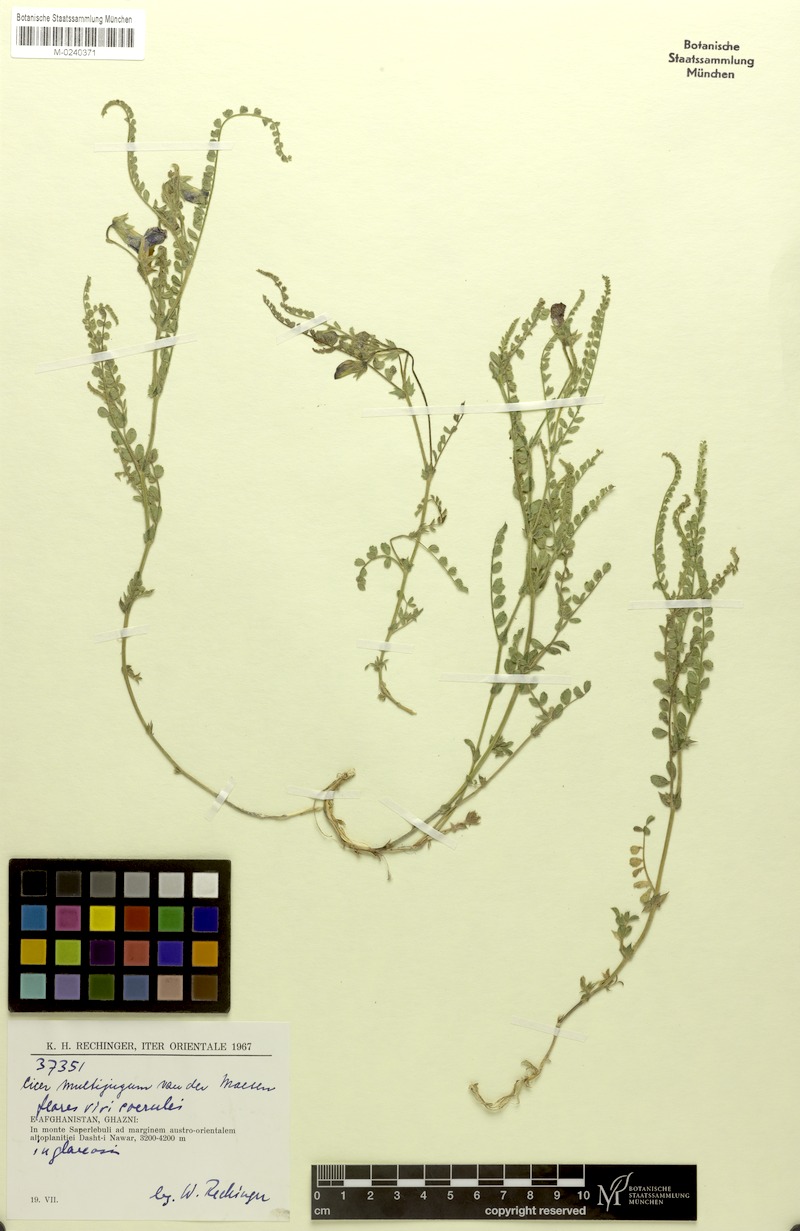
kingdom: Plantae
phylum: Tracheophyta
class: Magnoliopsida
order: Fabales
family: Fabaceae
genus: Cicer
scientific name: Cicer multijugum
